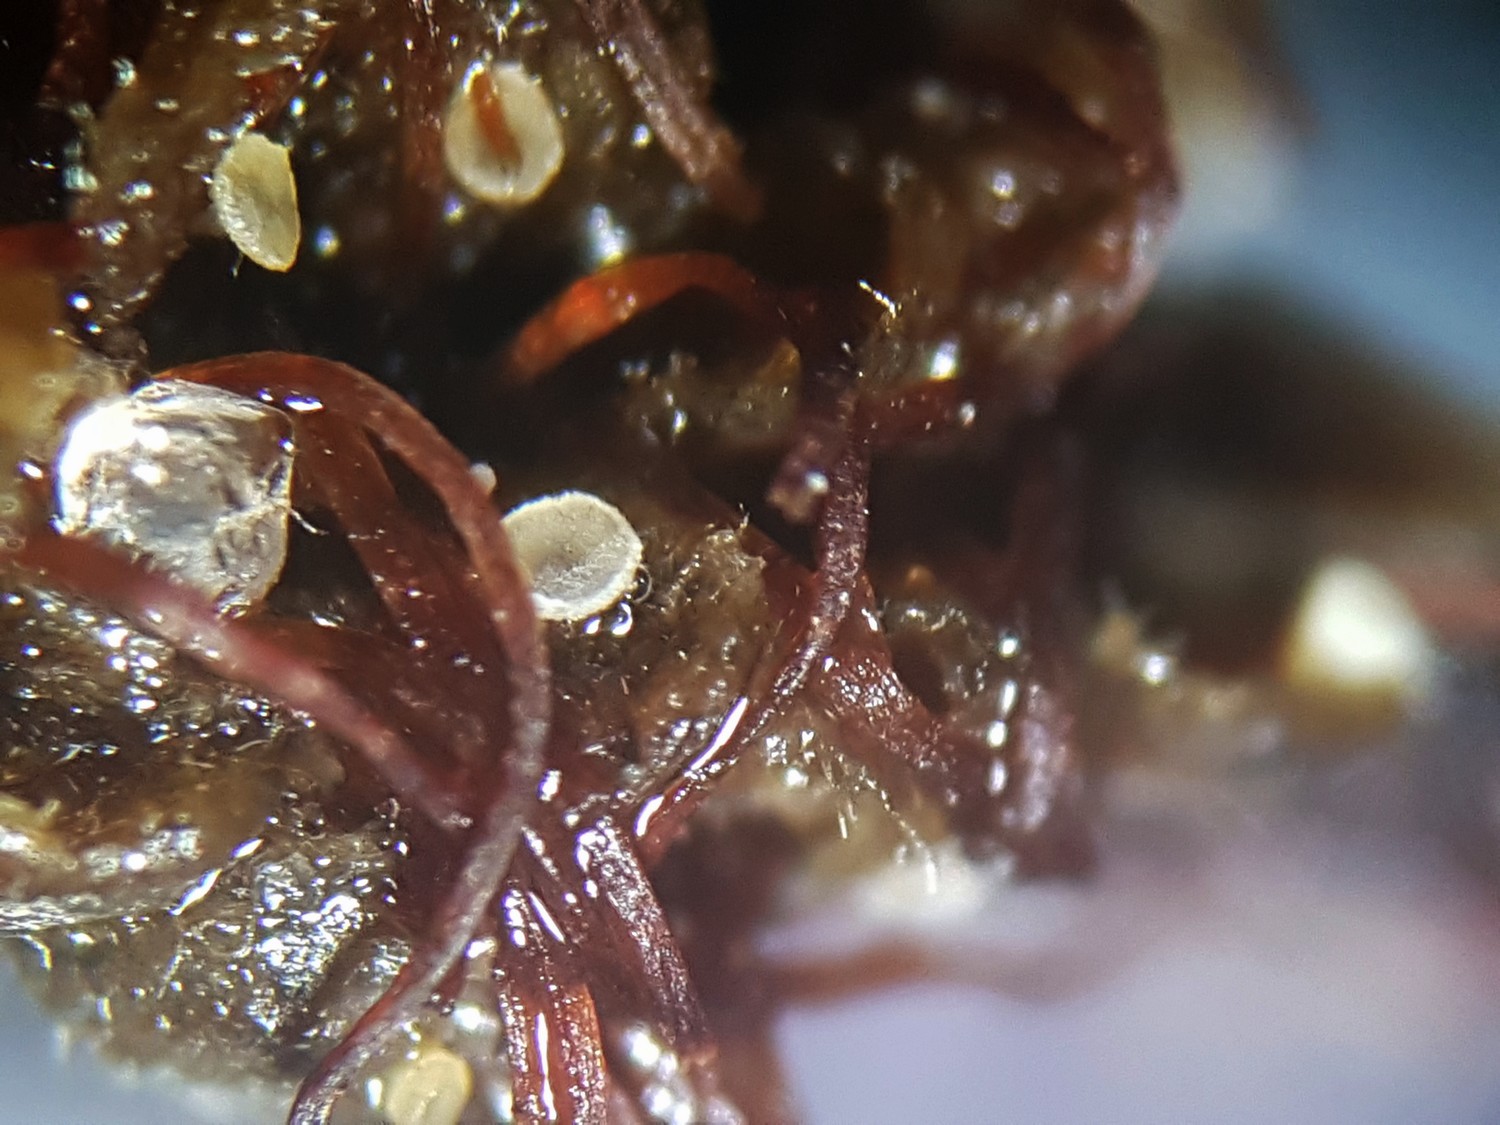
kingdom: Fungi
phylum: Ascomycota
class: Leotiomycetes
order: Helotiales
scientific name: Helotiales
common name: stilkskiveordenen
